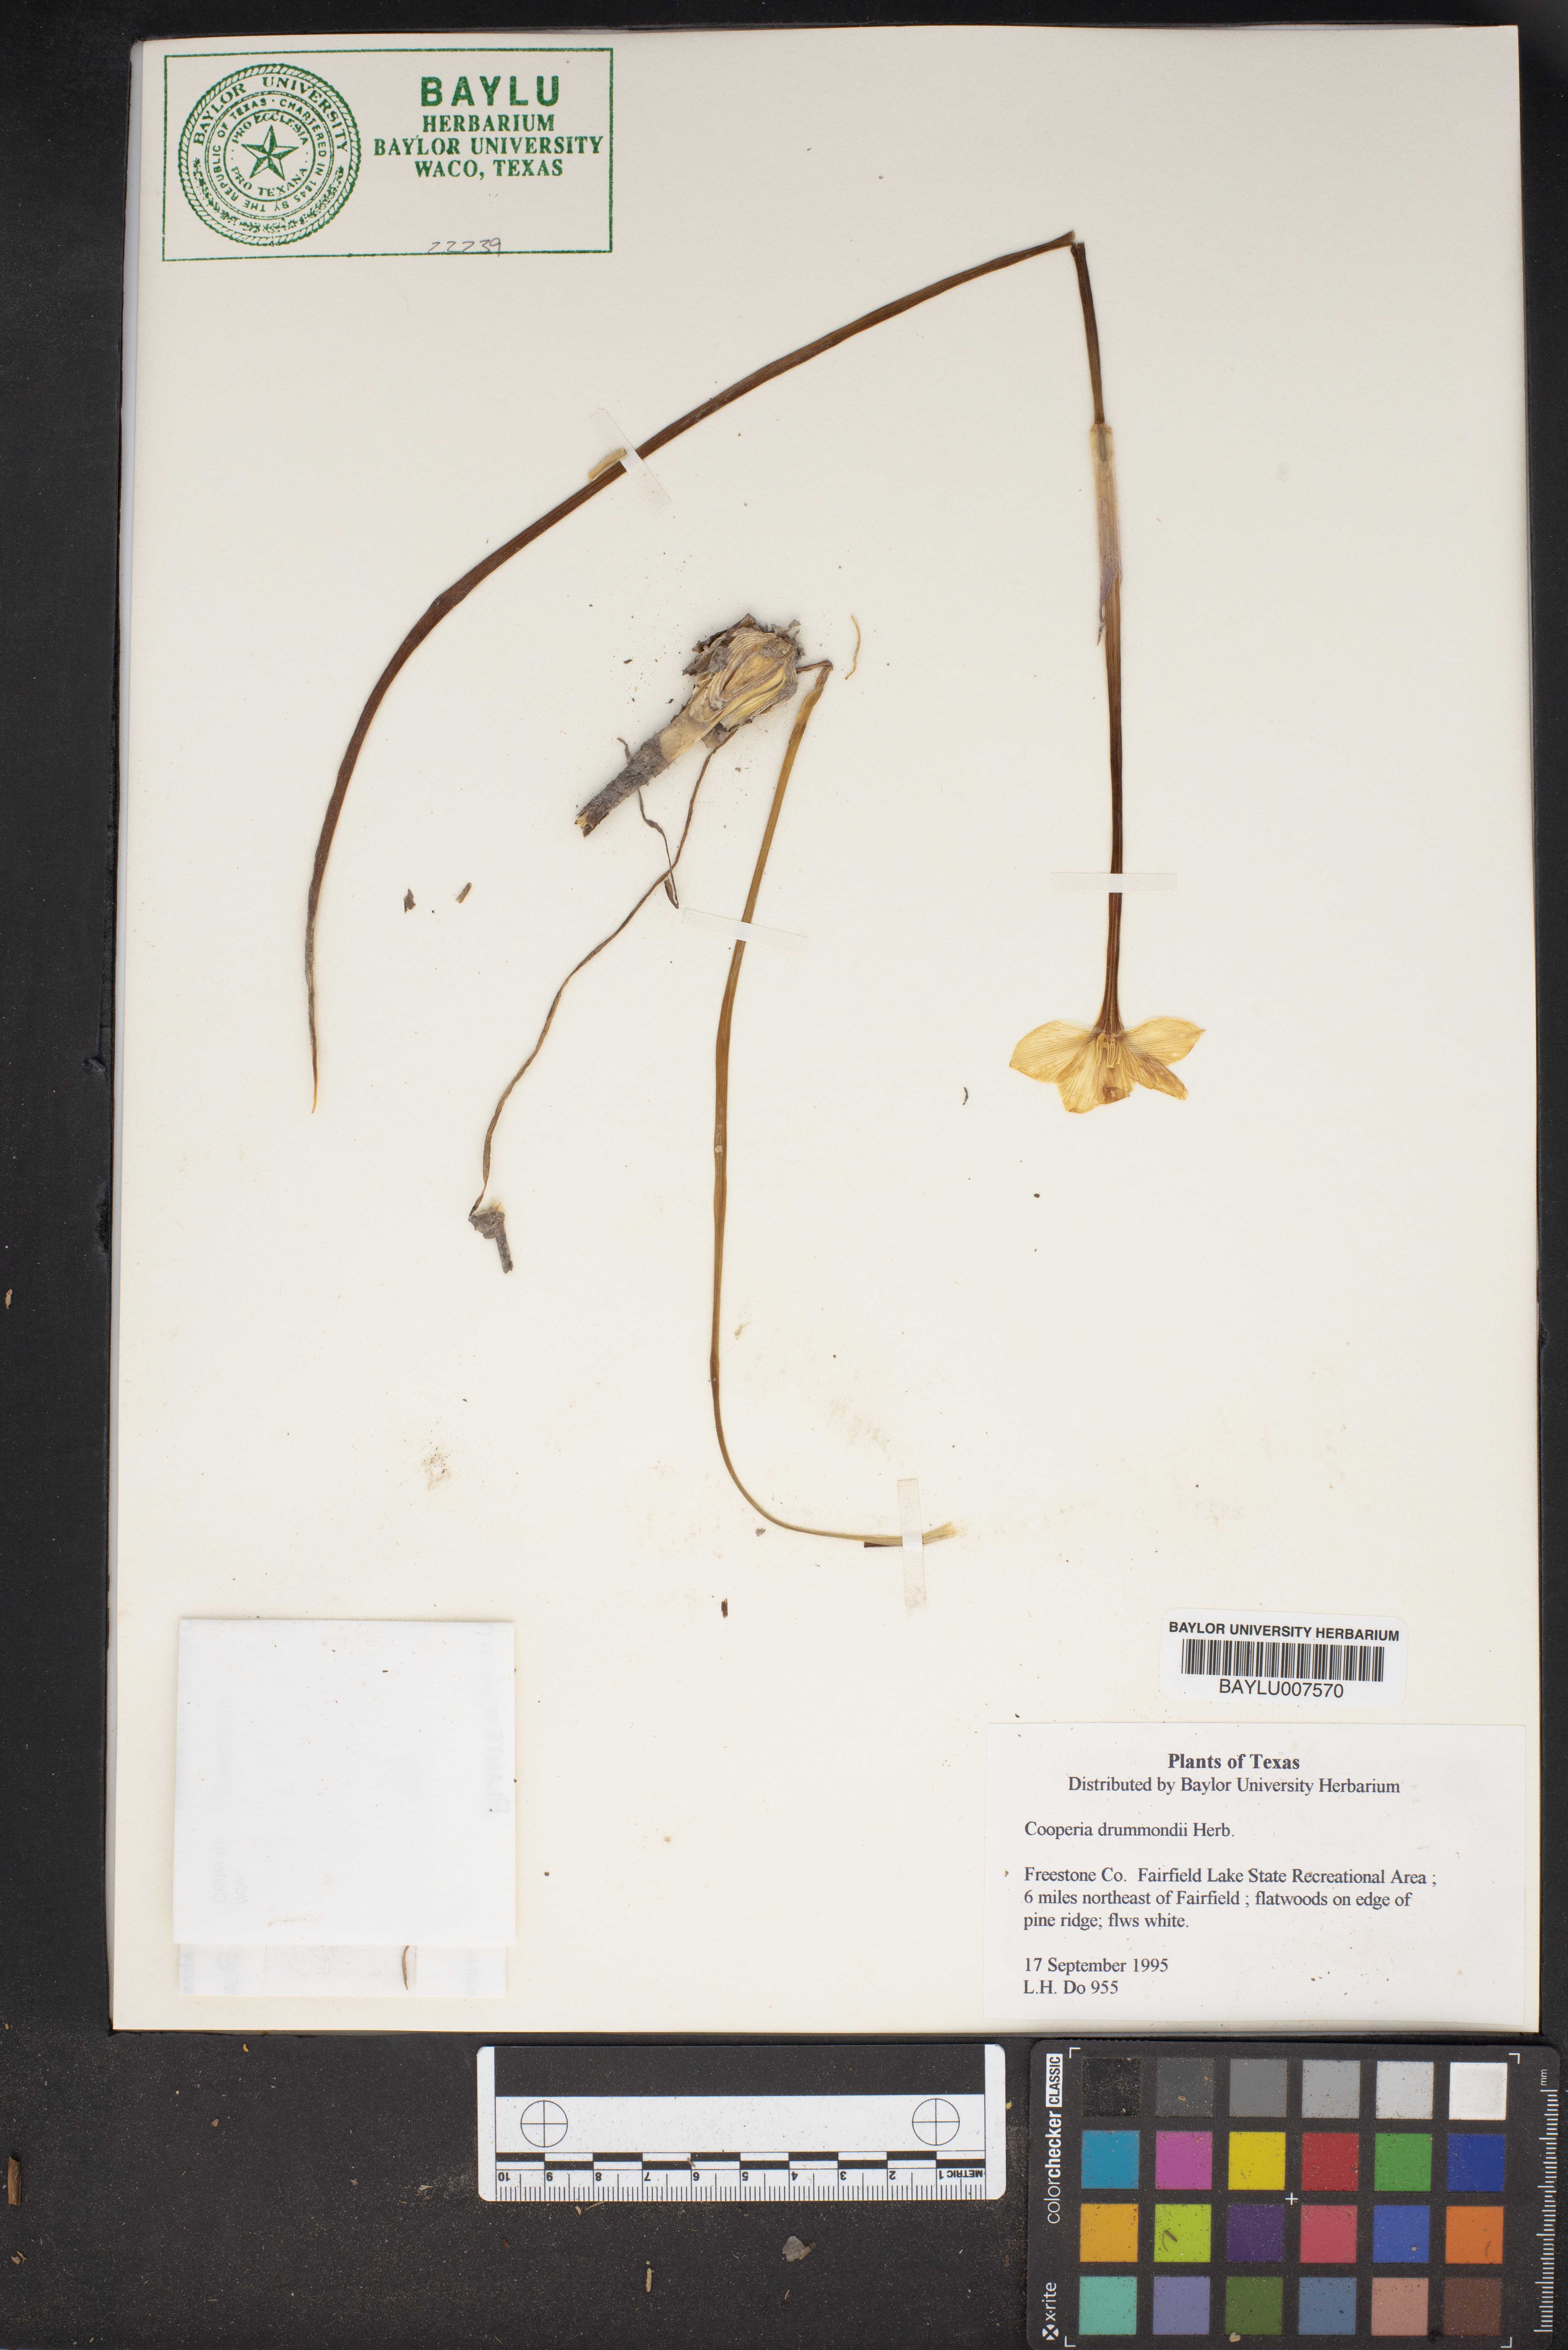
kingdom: Plantae
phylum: Tracheophyta
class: Liliopsida
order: Asparagales
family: Amaryllidaceae
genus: Zephyranthes
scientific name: Zephyranthes chlorosolen
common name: Evening rain-lily
